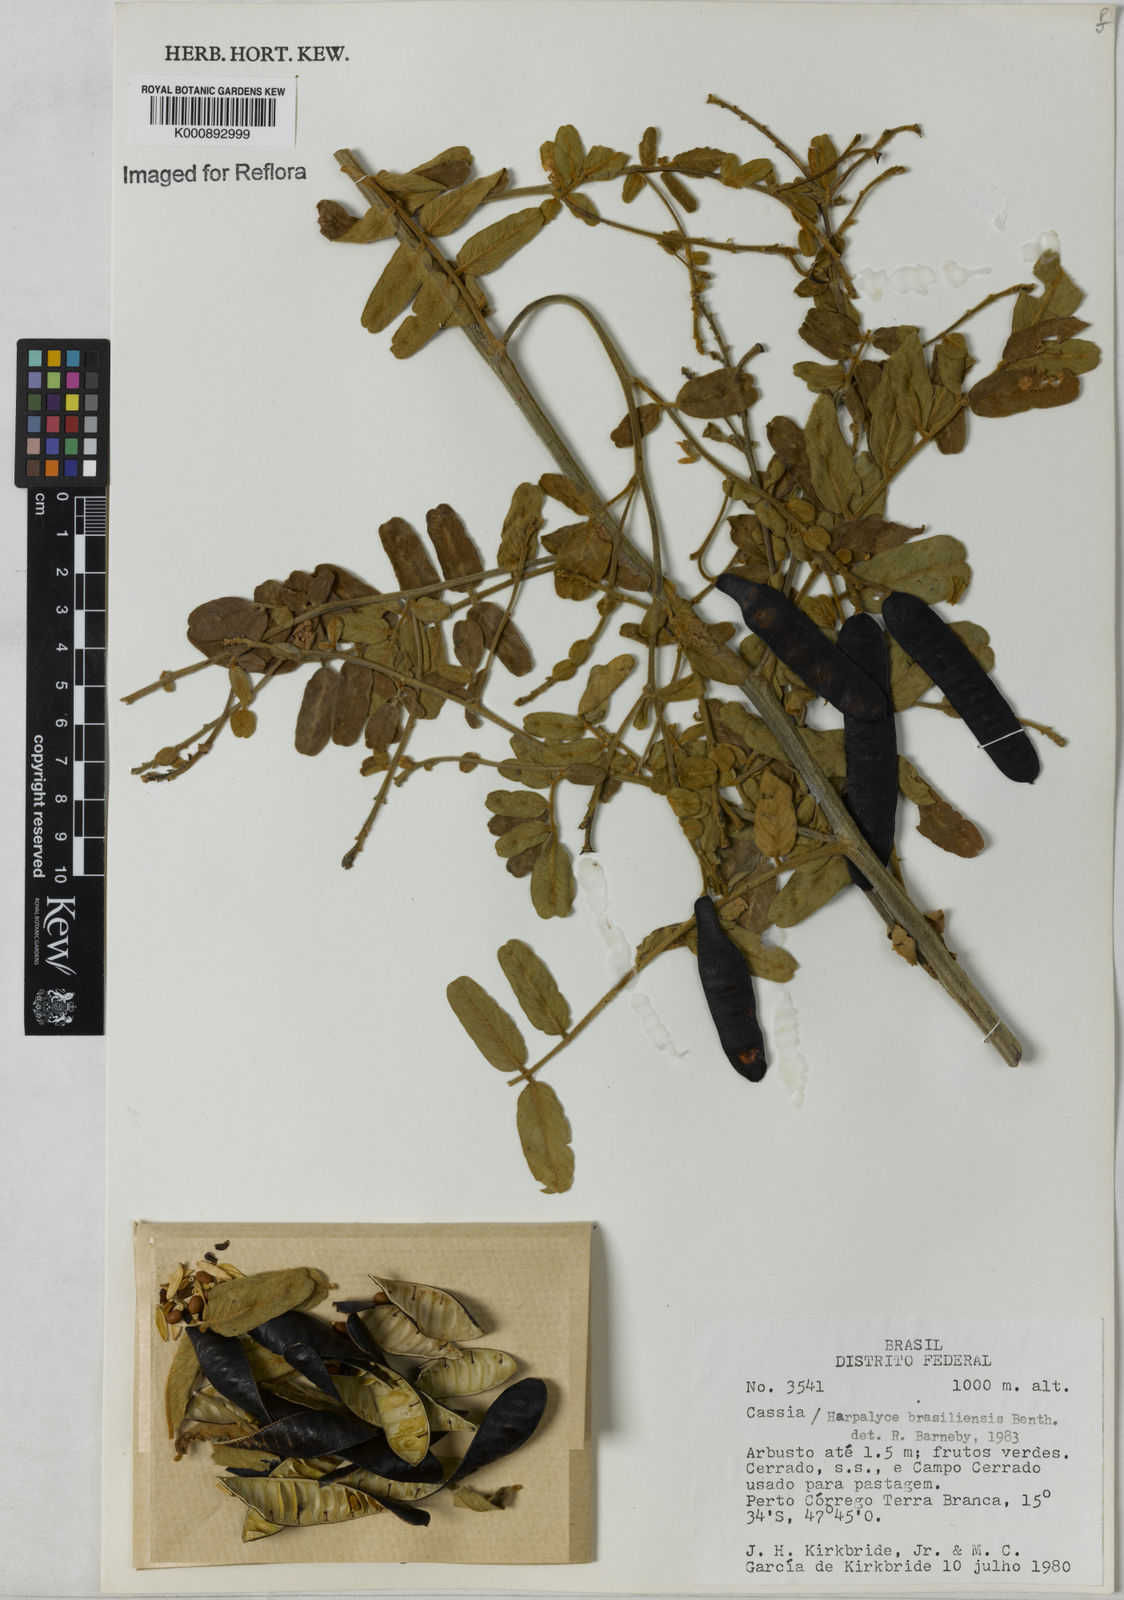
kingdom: Plantae
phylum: Tracheophyta
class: Magnoliopsida
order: Fabales
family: Fabaceae
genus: Harpalyce
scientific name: Harpalyce brasiliana
